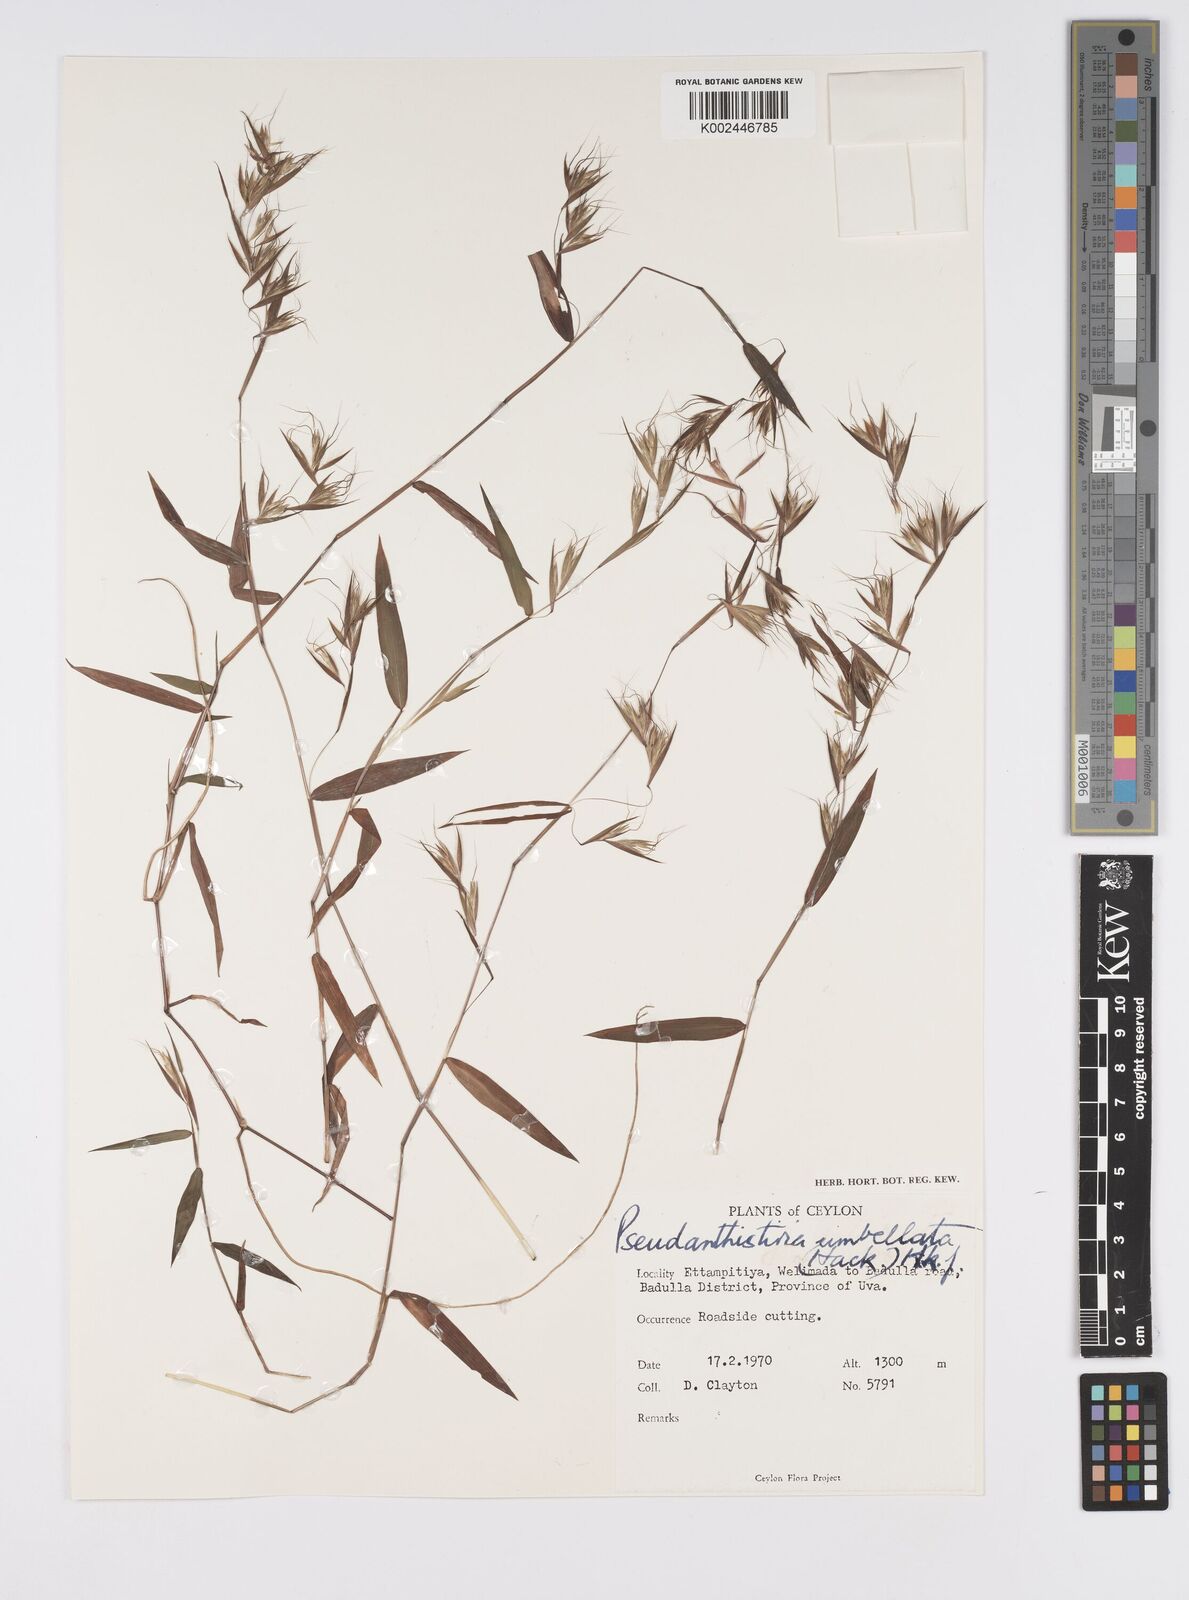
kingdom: Plantae
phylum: Tracheophyta
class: Liliopsida
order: Poales
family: Poaceae
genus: Pseudanthistiria
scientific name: Pseudanthistiria umbellata
